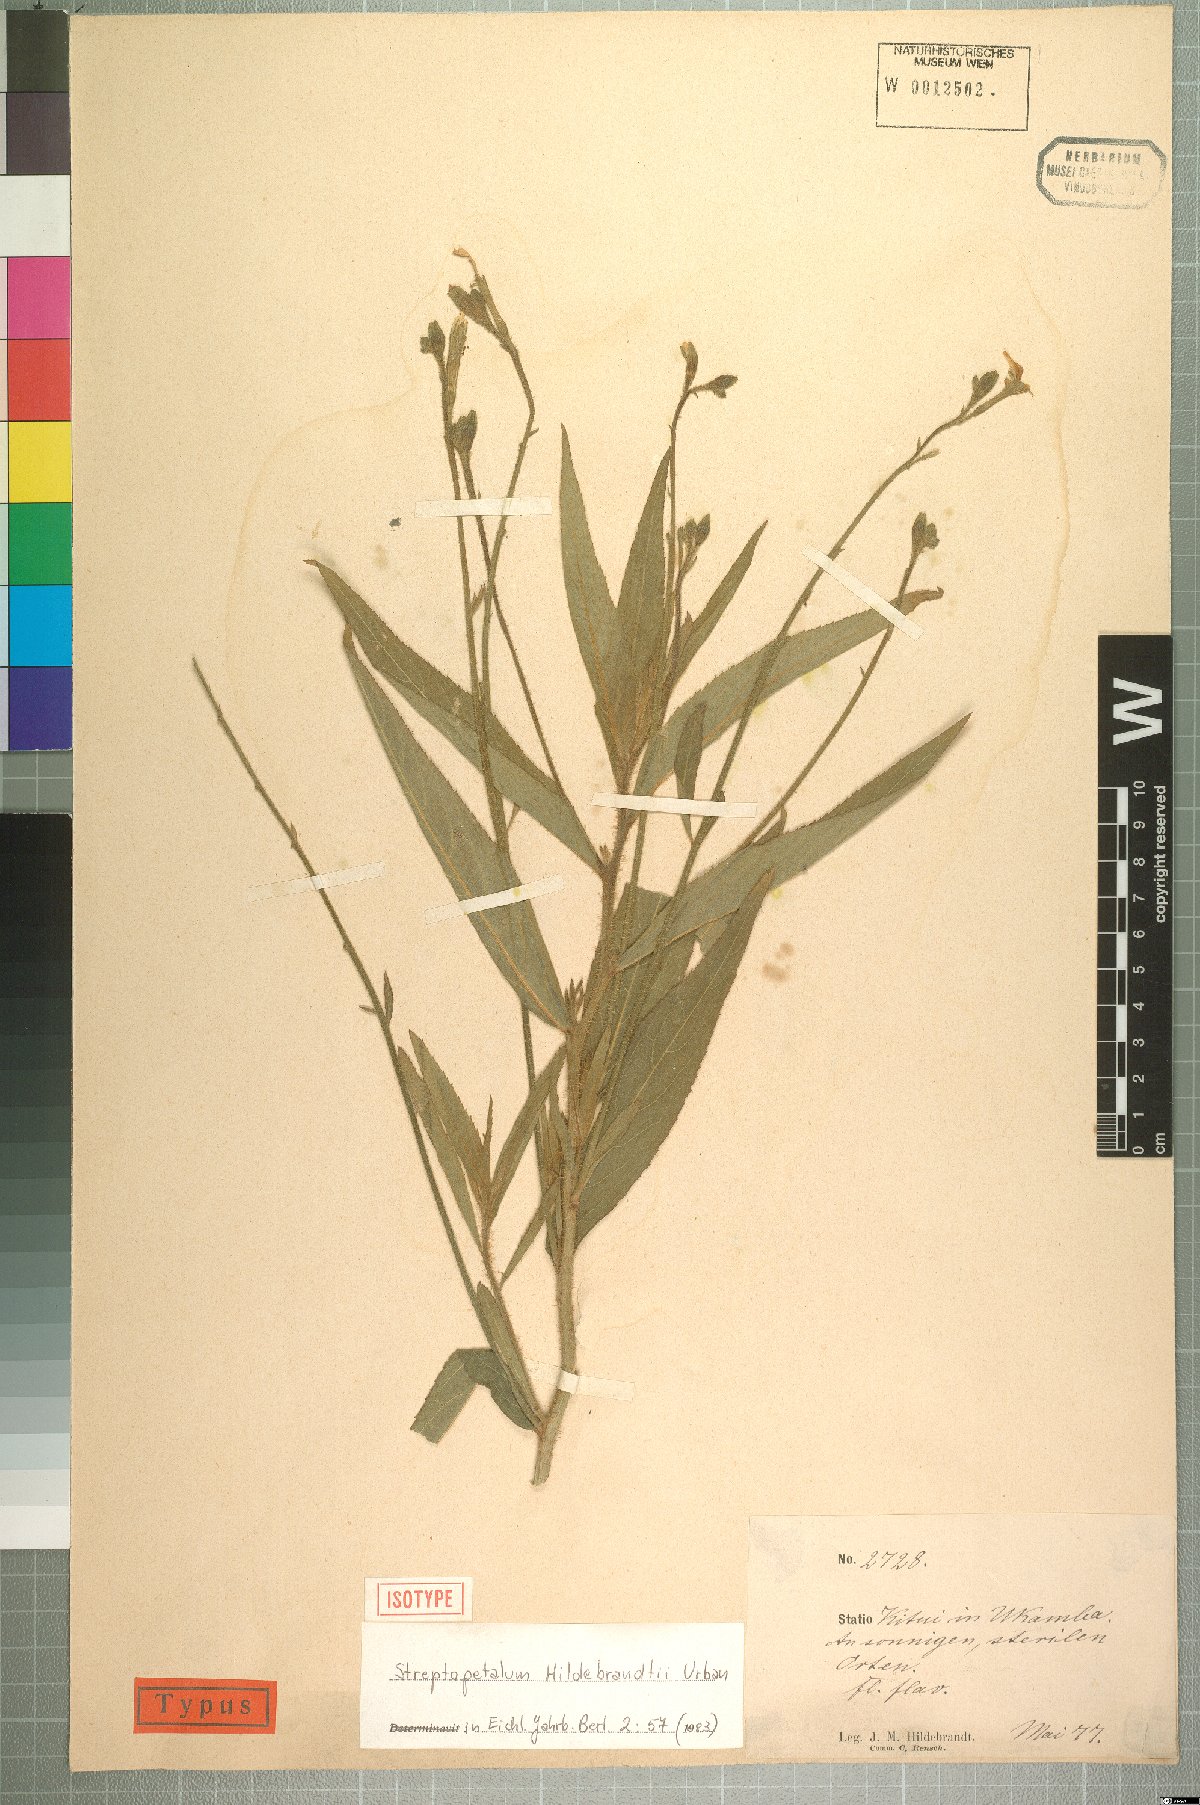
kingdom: Plantae
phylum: Tracheophyta
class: Magnoliopsida
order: Malpighiales
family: Turneraceae
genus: Streptopetalum
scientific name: Streptopetalum hildebrandtii
